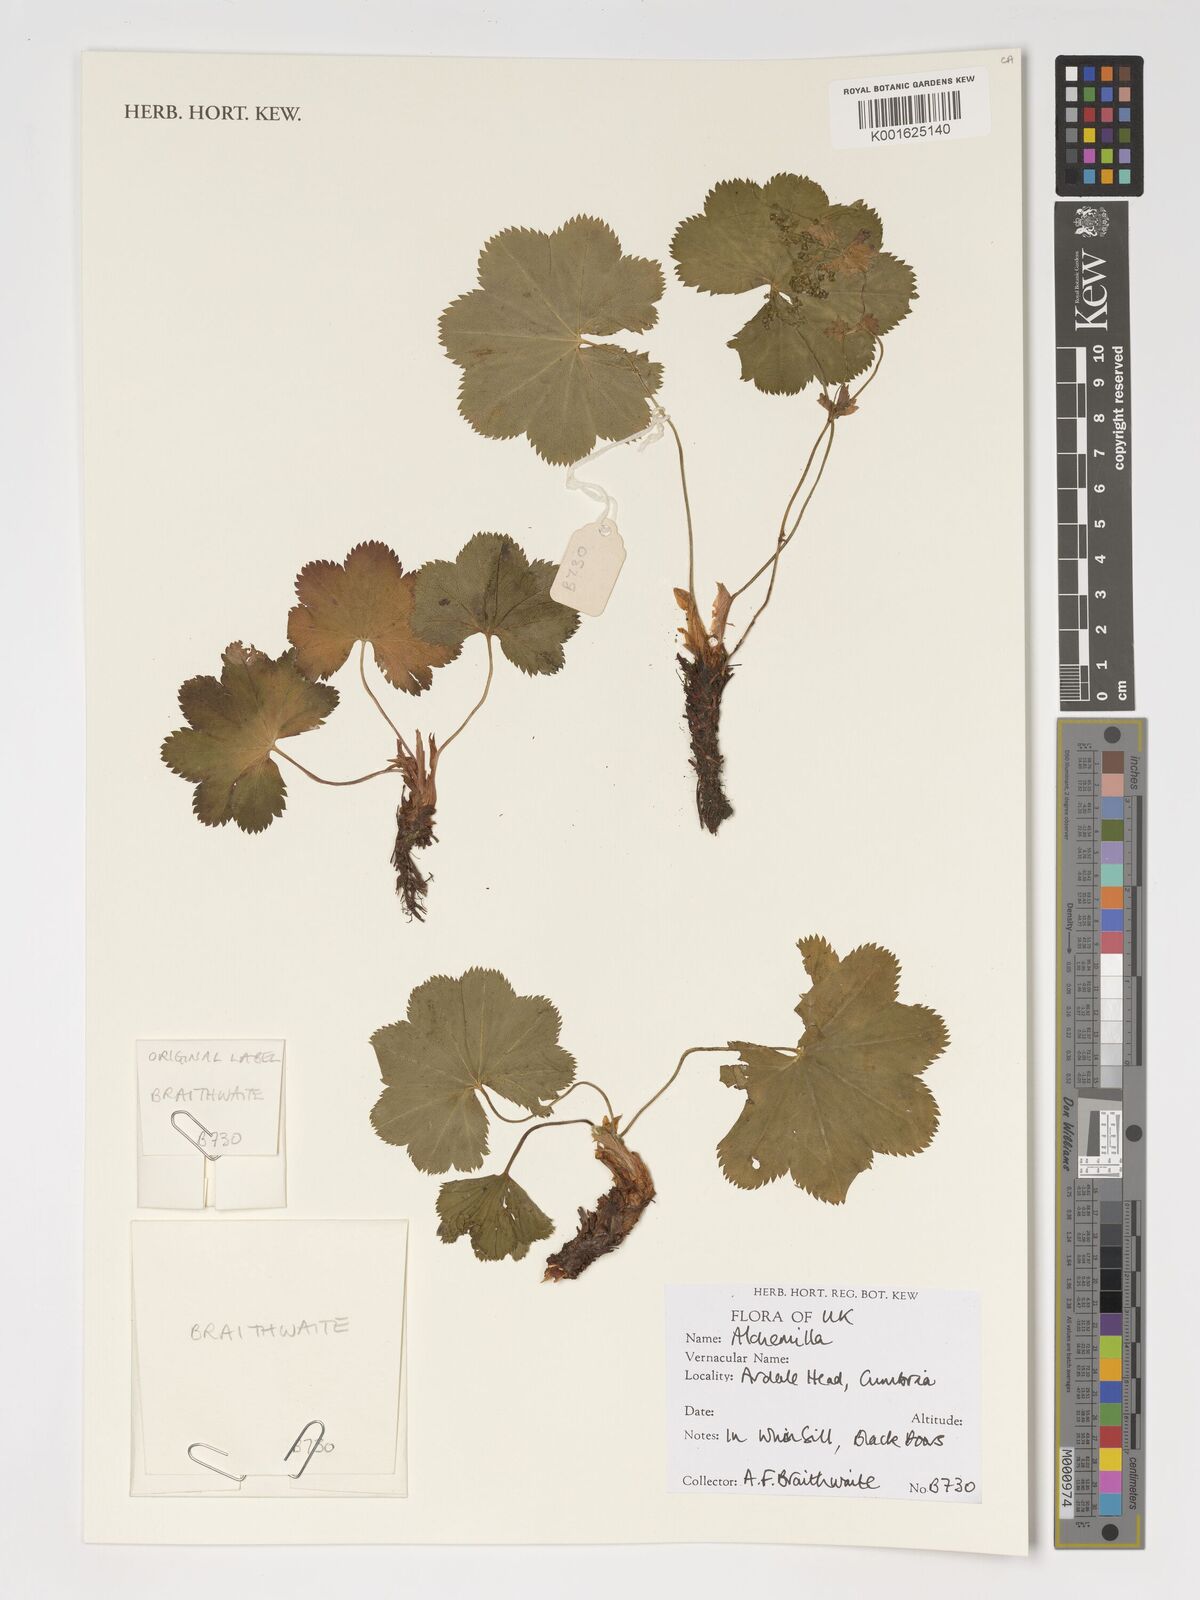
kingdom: Plantae
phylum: Tracheophyta
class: Magnoliopsida
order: Rosales
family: Rosaceae
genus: Alchemilla
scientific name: Alchemilla
